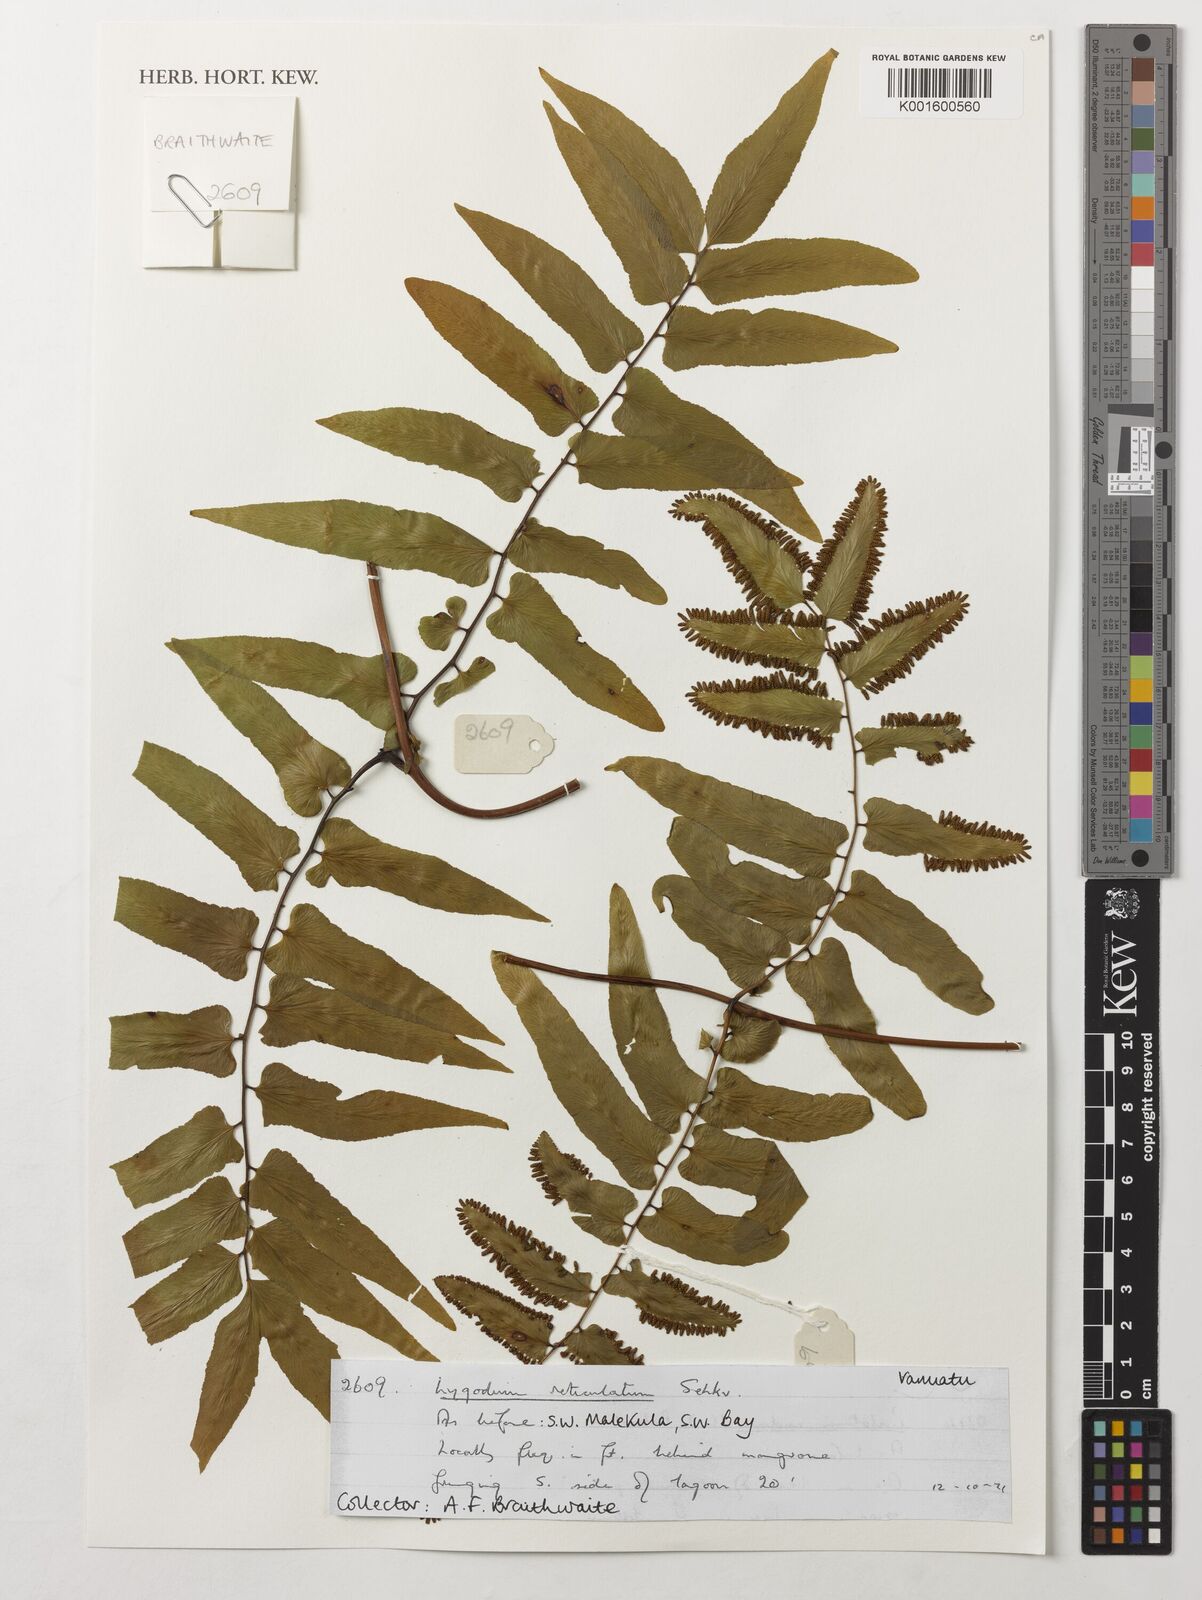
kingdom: Plantae
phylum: Tracheophyta
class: Polypodiopsida
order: Schizaeales
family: Lygodiaceae
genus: Lygodium
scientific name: Lygodium reticulatum
